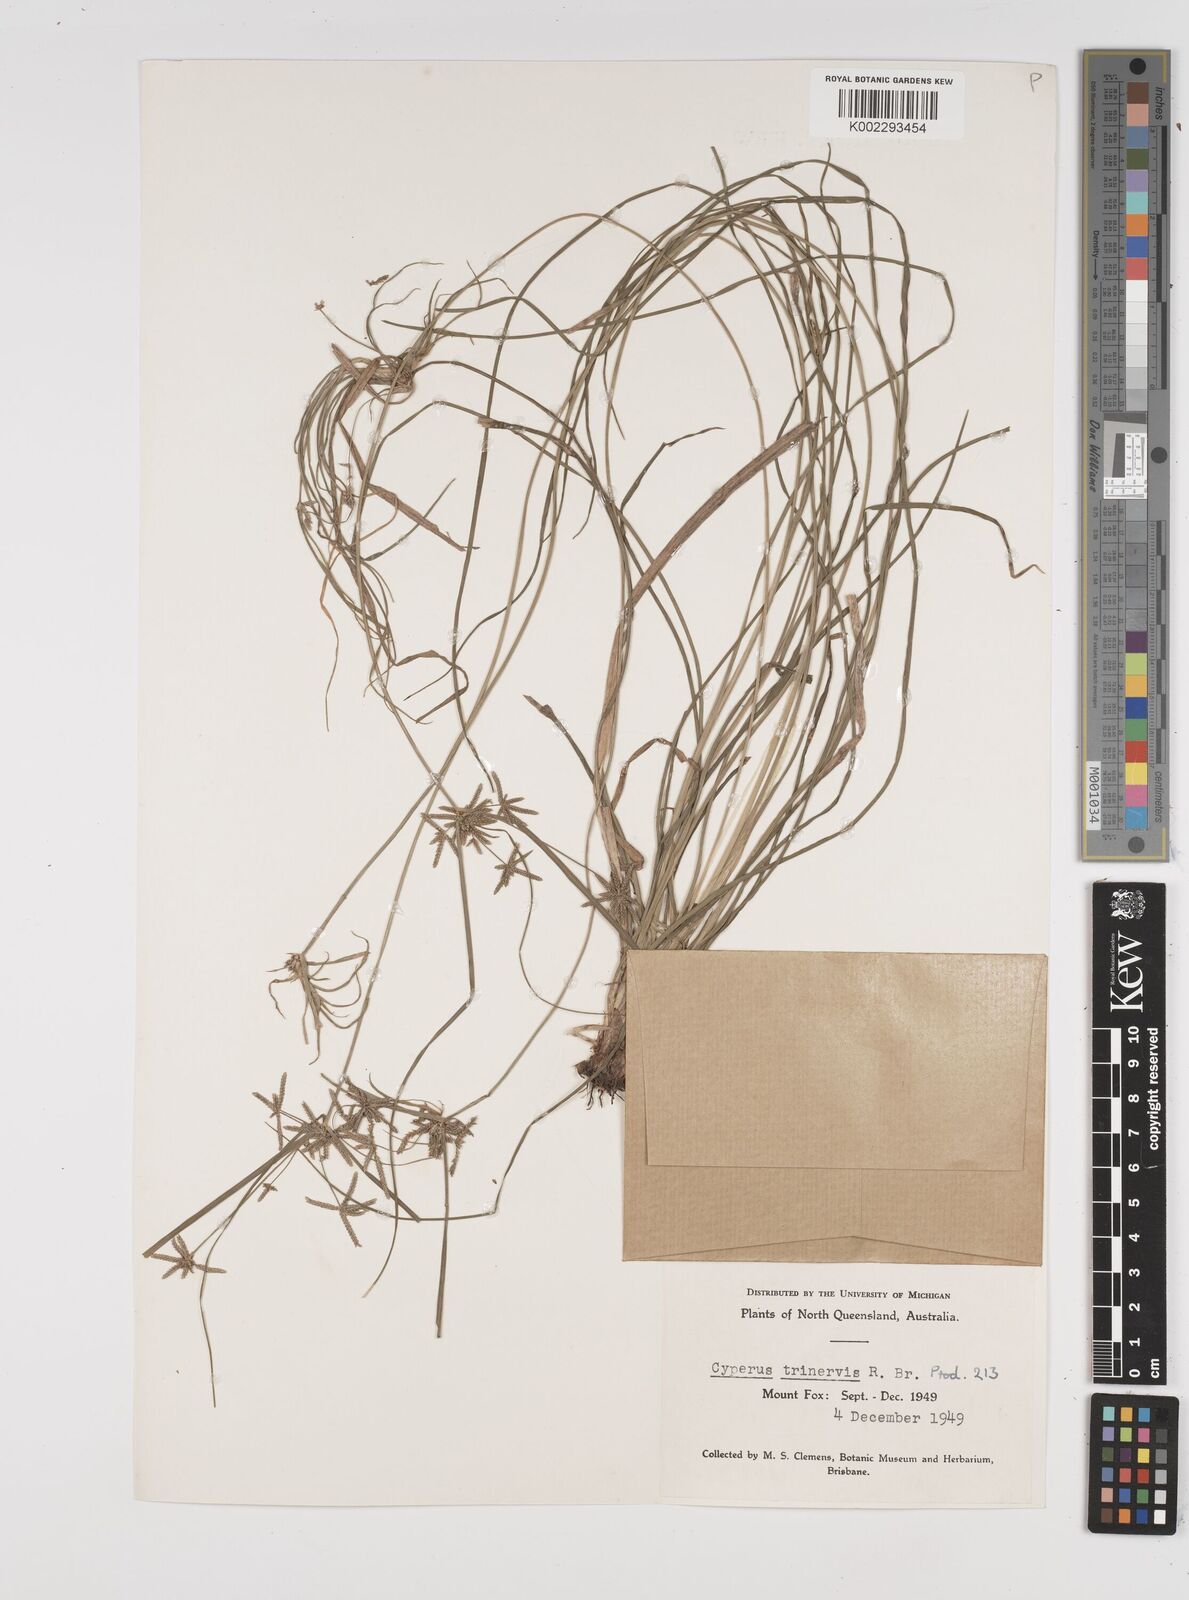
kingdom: Plantae
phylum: Tracheophyta
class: Liliopsida
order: Poales
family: Cyperaceae
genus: Cyperus
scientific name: Cyperus trinervis
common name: Australian flatsedge
